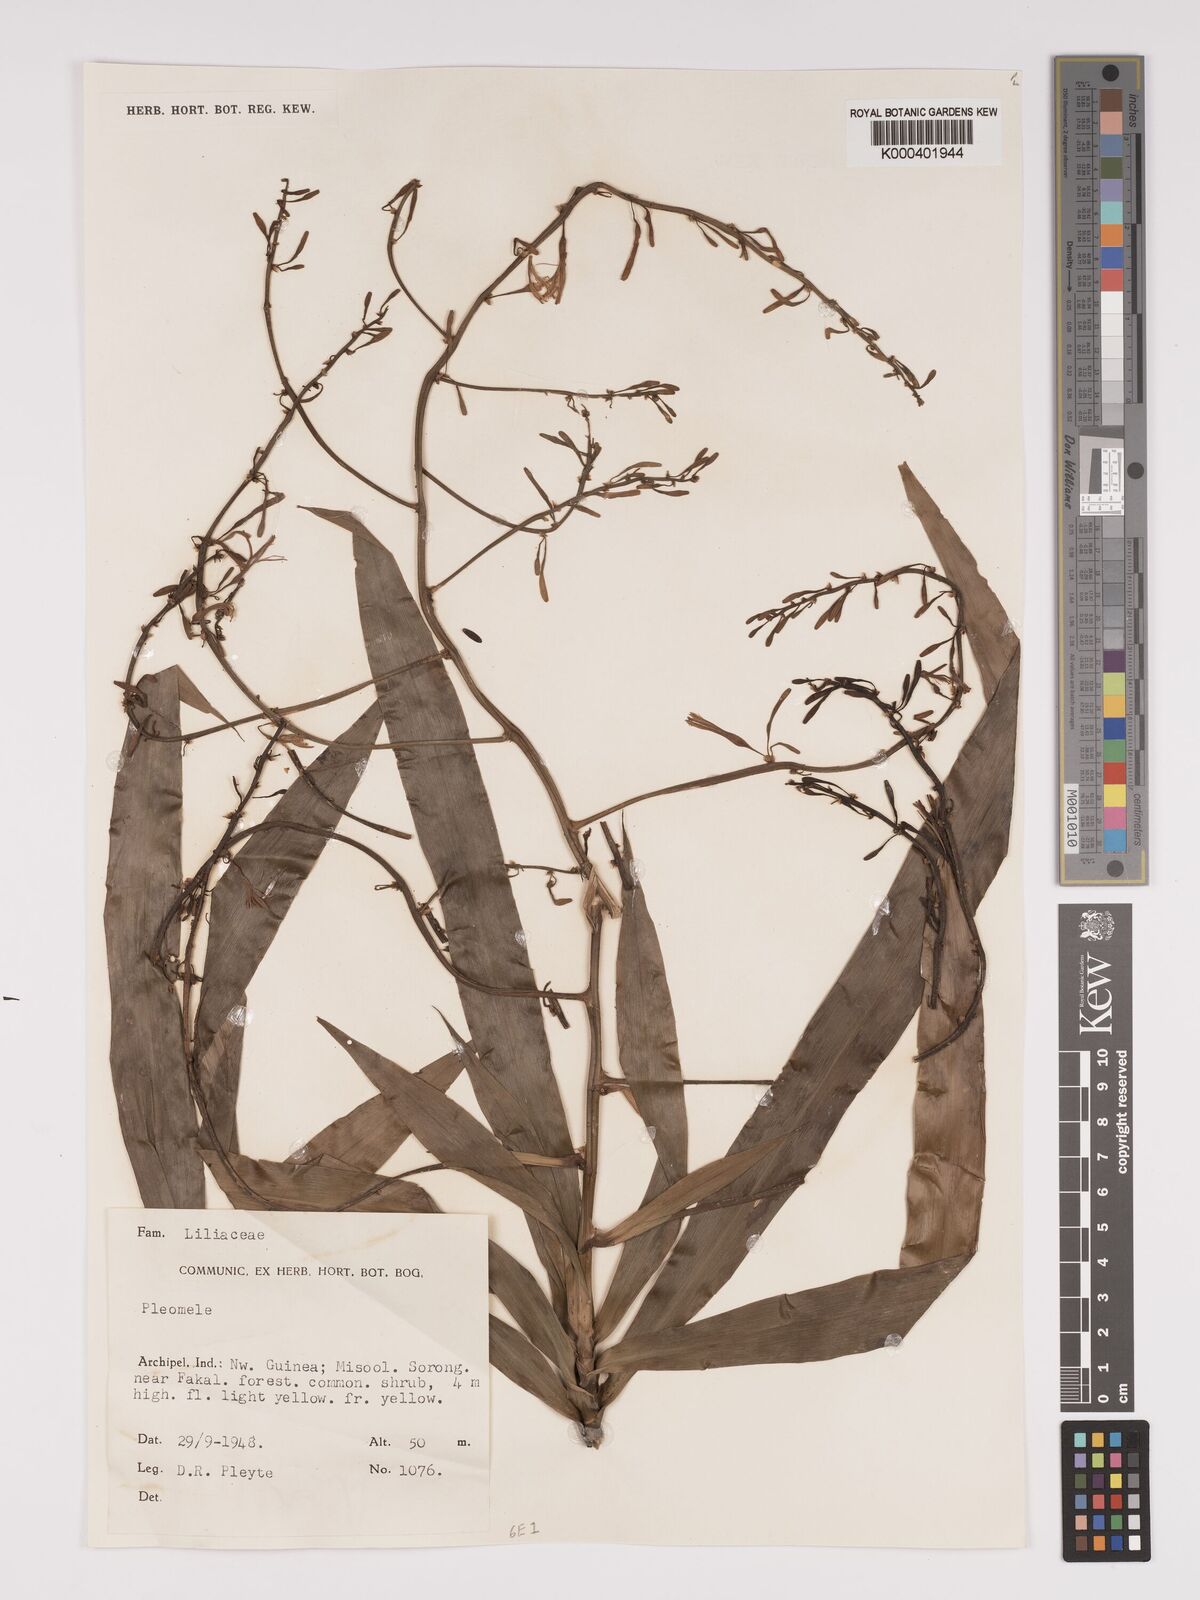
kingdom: Plantae
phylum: Tracheophyta
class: Liliopsida
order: Asparagales
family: Asparagaceae
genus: Dracaena
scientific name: Dracaena angustifolia
